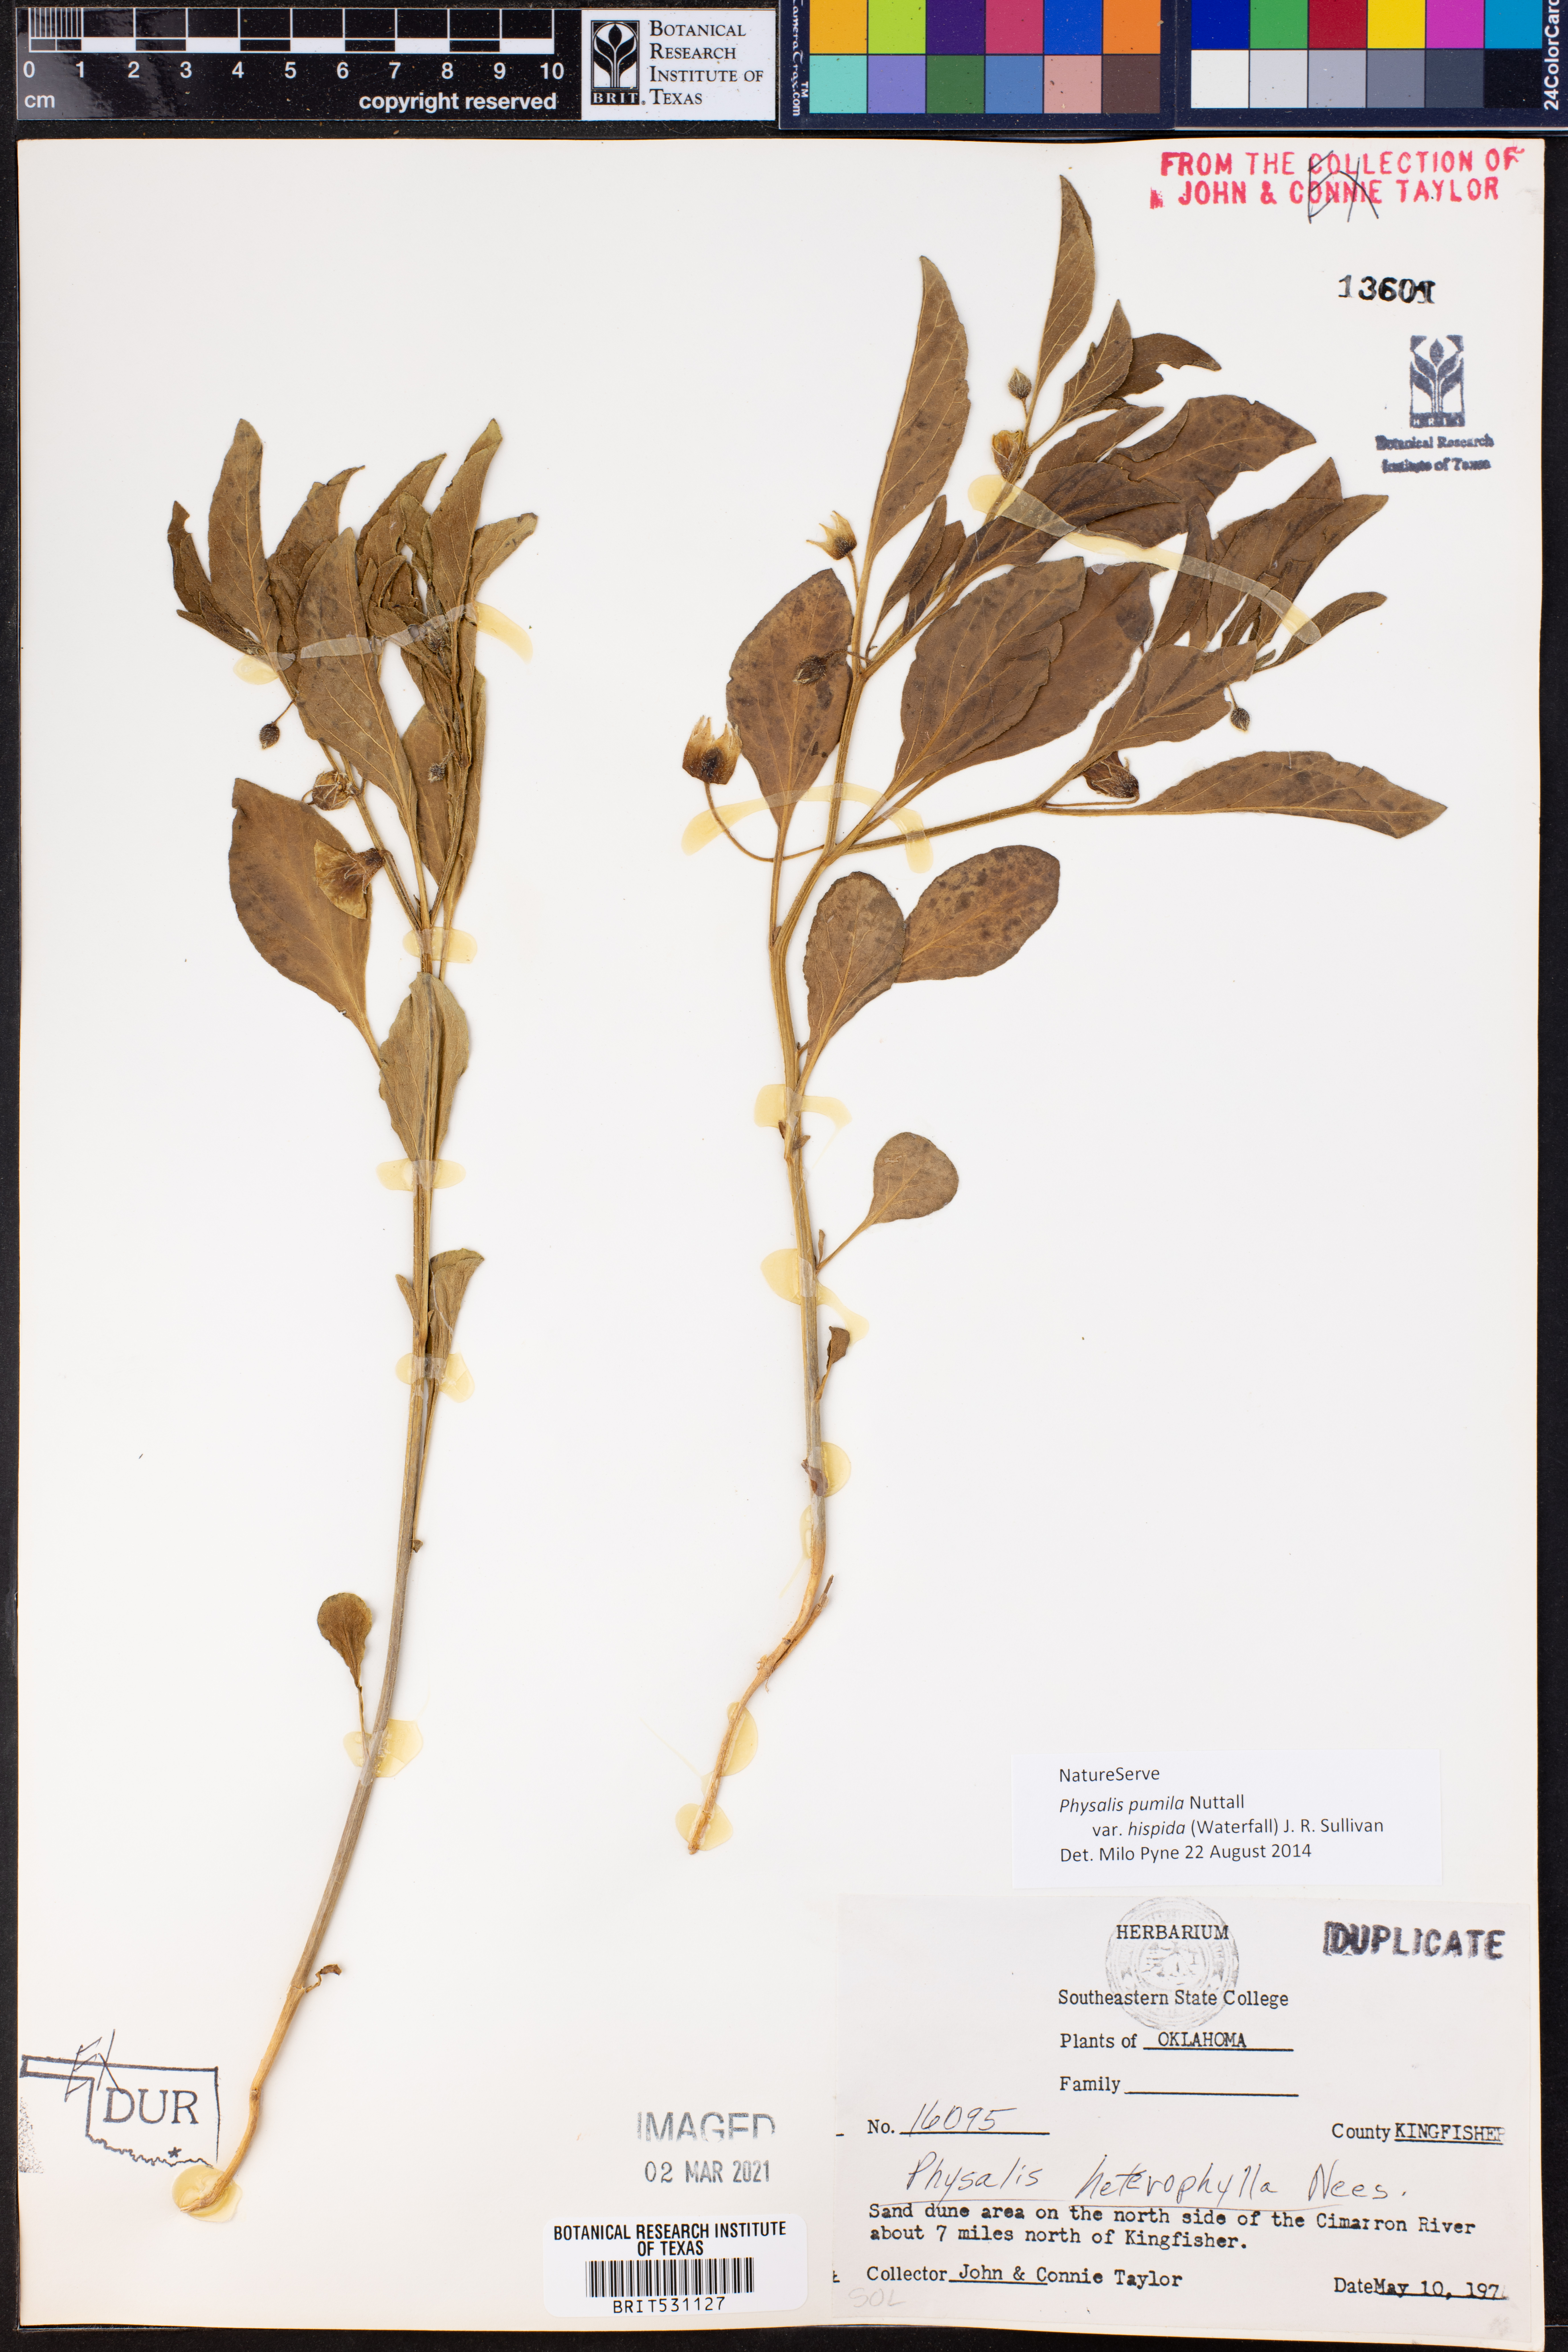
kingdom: Plantae
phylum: Tracheophyta
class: Magnoliopsida
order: Solanales
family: Solanaceae
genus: Physalis
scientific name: Physalis pumila
